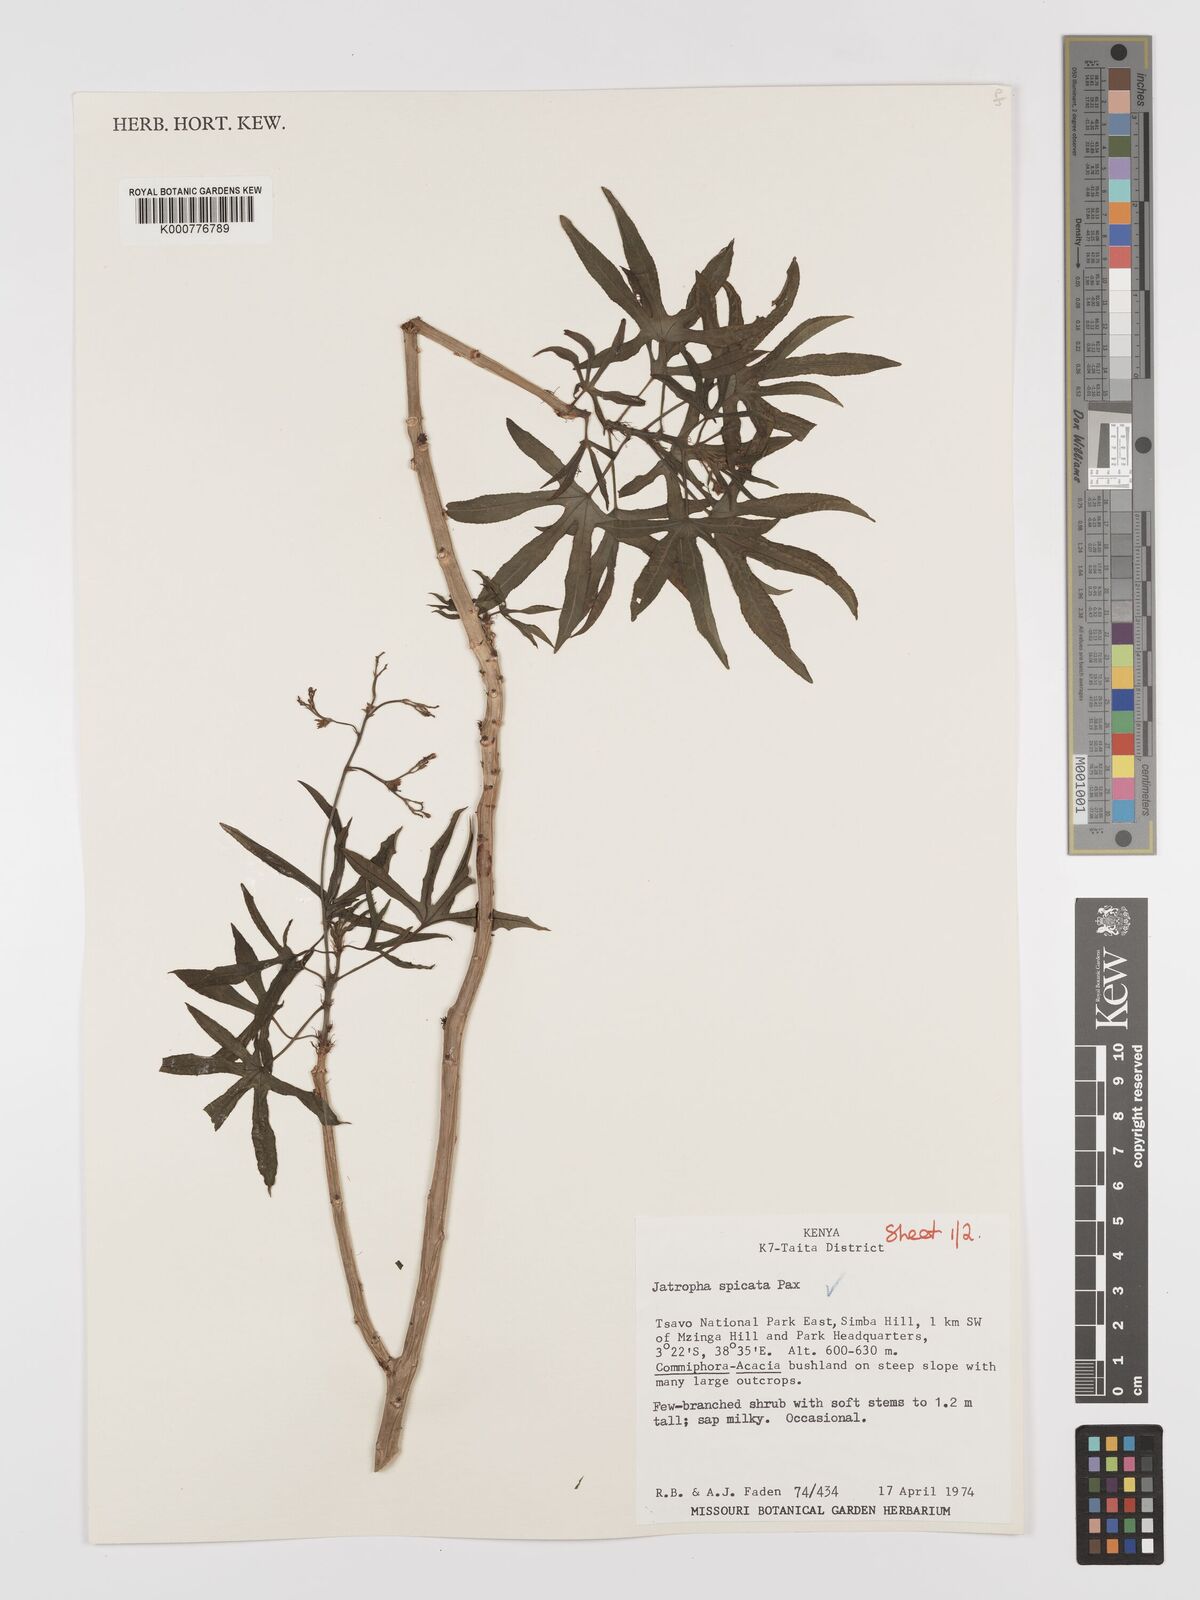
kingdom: Plantae
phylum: Tracheophyta
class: Magnoliopsida
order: Malpighiales
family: Euphorbiaceae
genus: Jatropha
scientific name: Jatropha spicata
